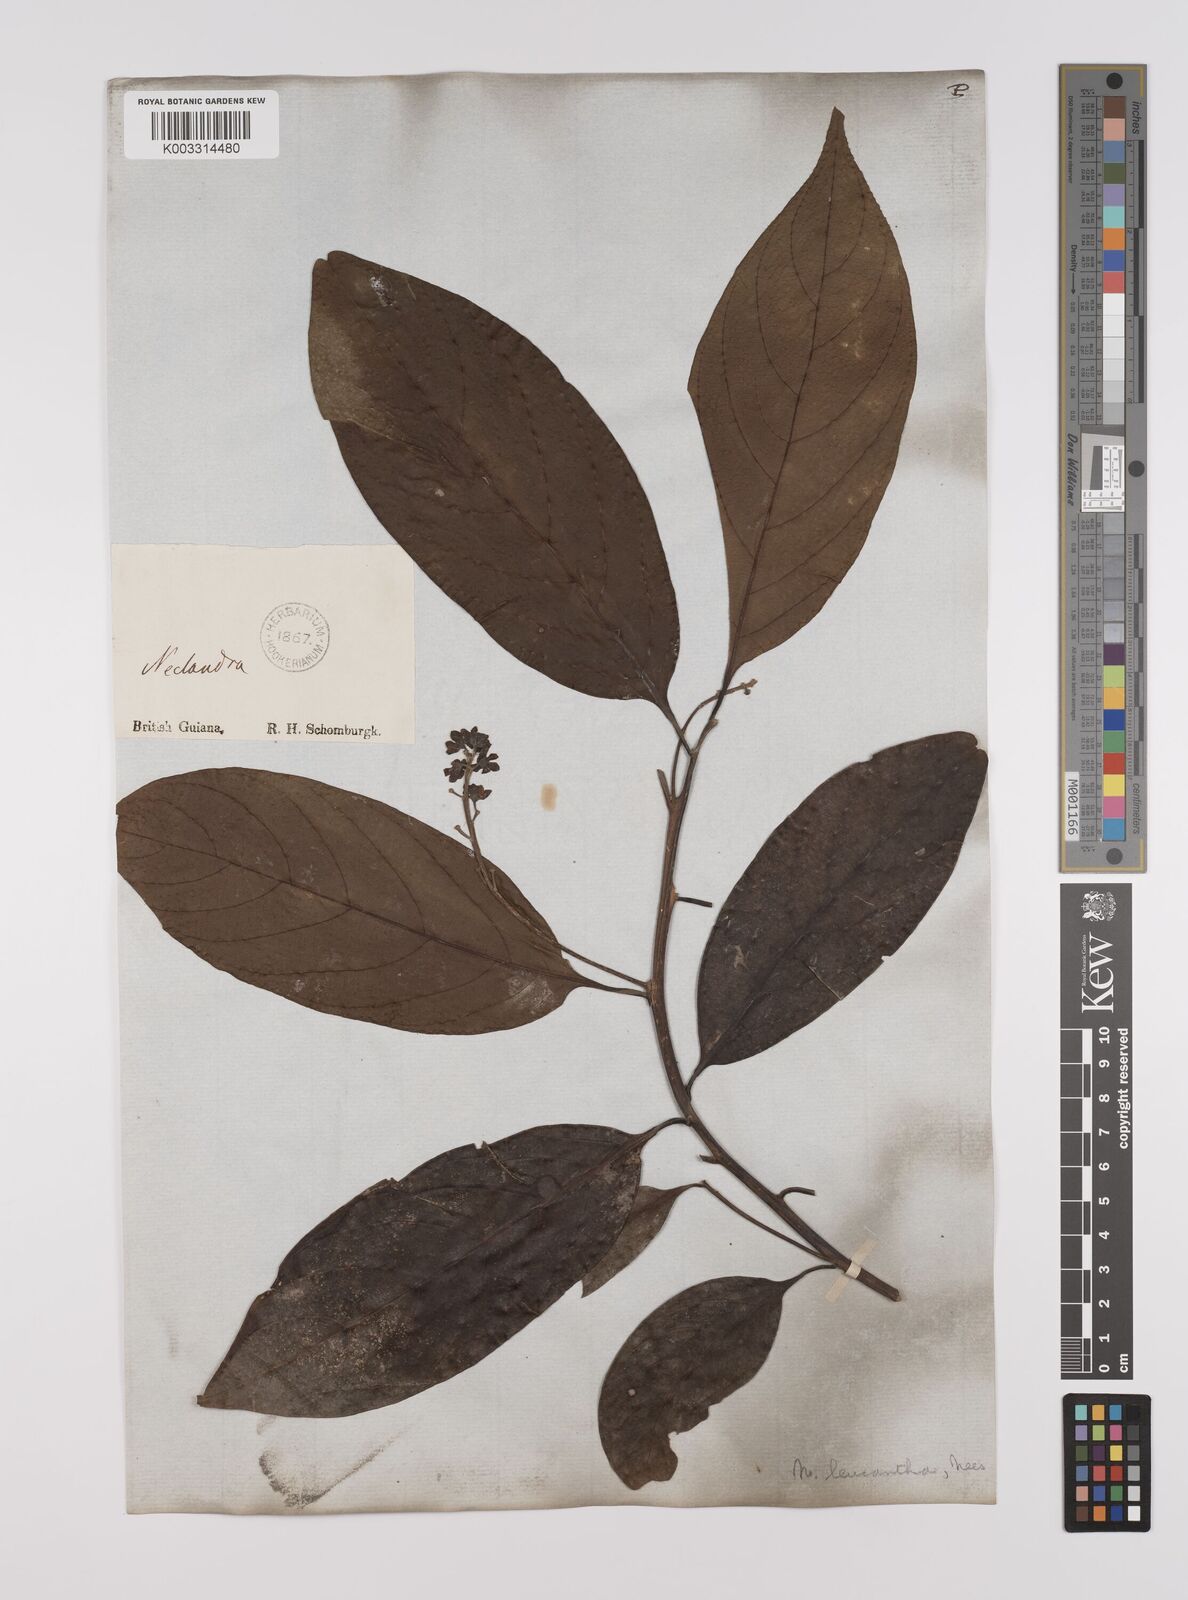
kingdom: Plantae
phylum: Tracheophyta
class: Magnoliopsida
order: Laurales
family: Lauraceae
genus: Nectandra
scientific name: Nectandra leucantha
